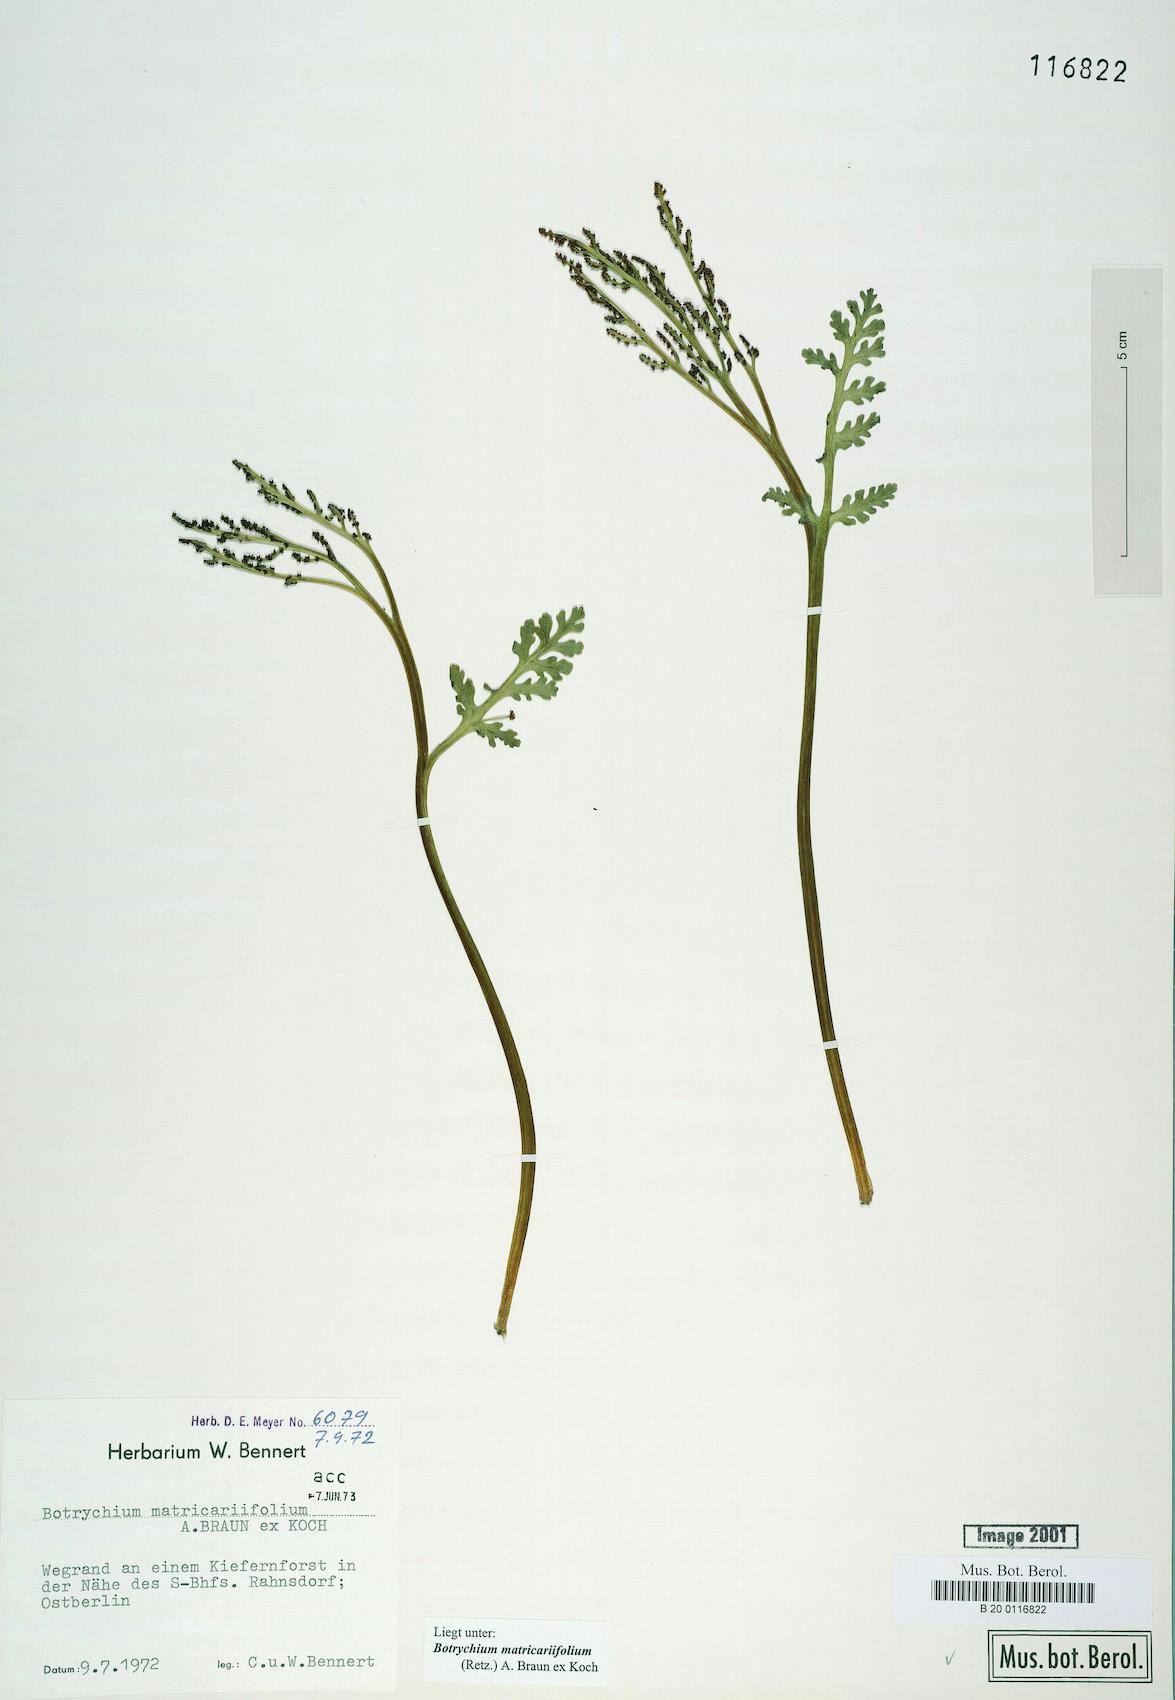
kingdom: Plantae
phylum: Tracheophyta
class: Polypodiopsida
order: Ophioglossales
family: Ophioglossaceae
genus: Botrychium
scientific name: Botrychium matricariifolium
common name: Branched moonwort
